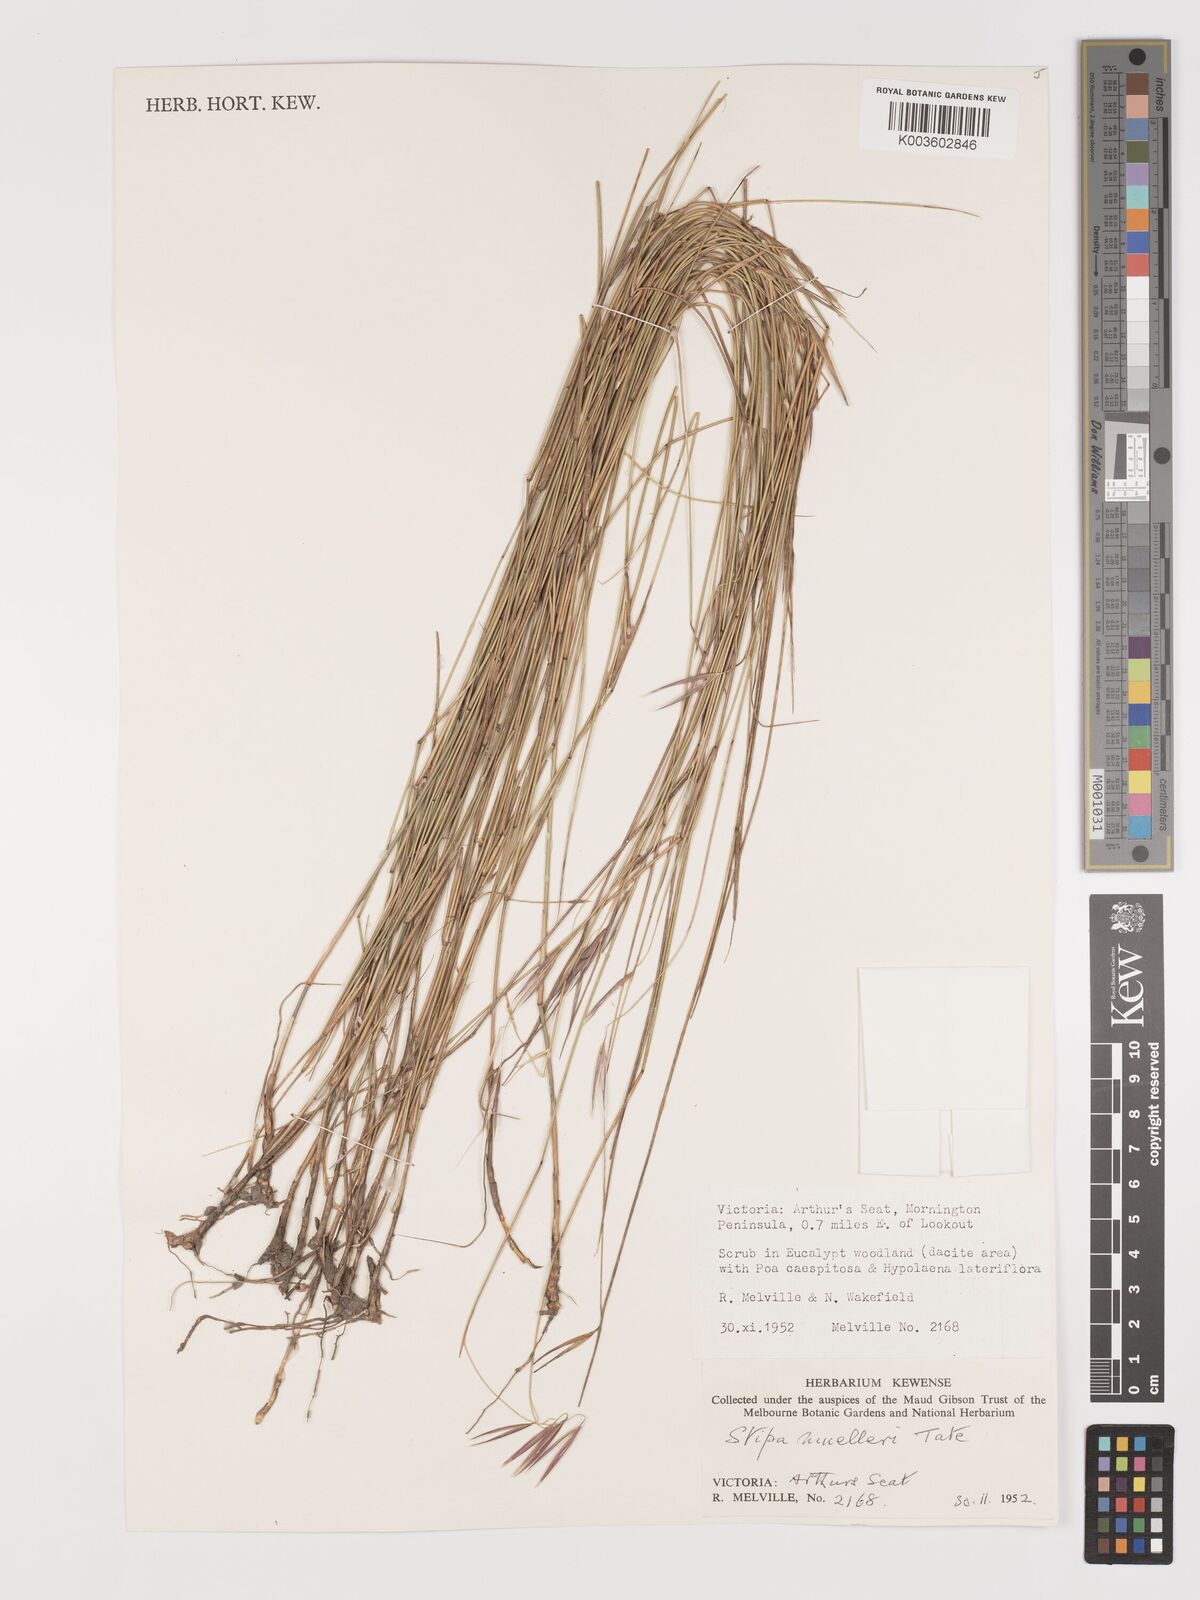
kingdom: Plantae
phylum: Tracheophyta
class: Liliopsida
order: Poales
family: Poaceae
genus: Austrostipa
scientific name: Austrostipa muelleri
